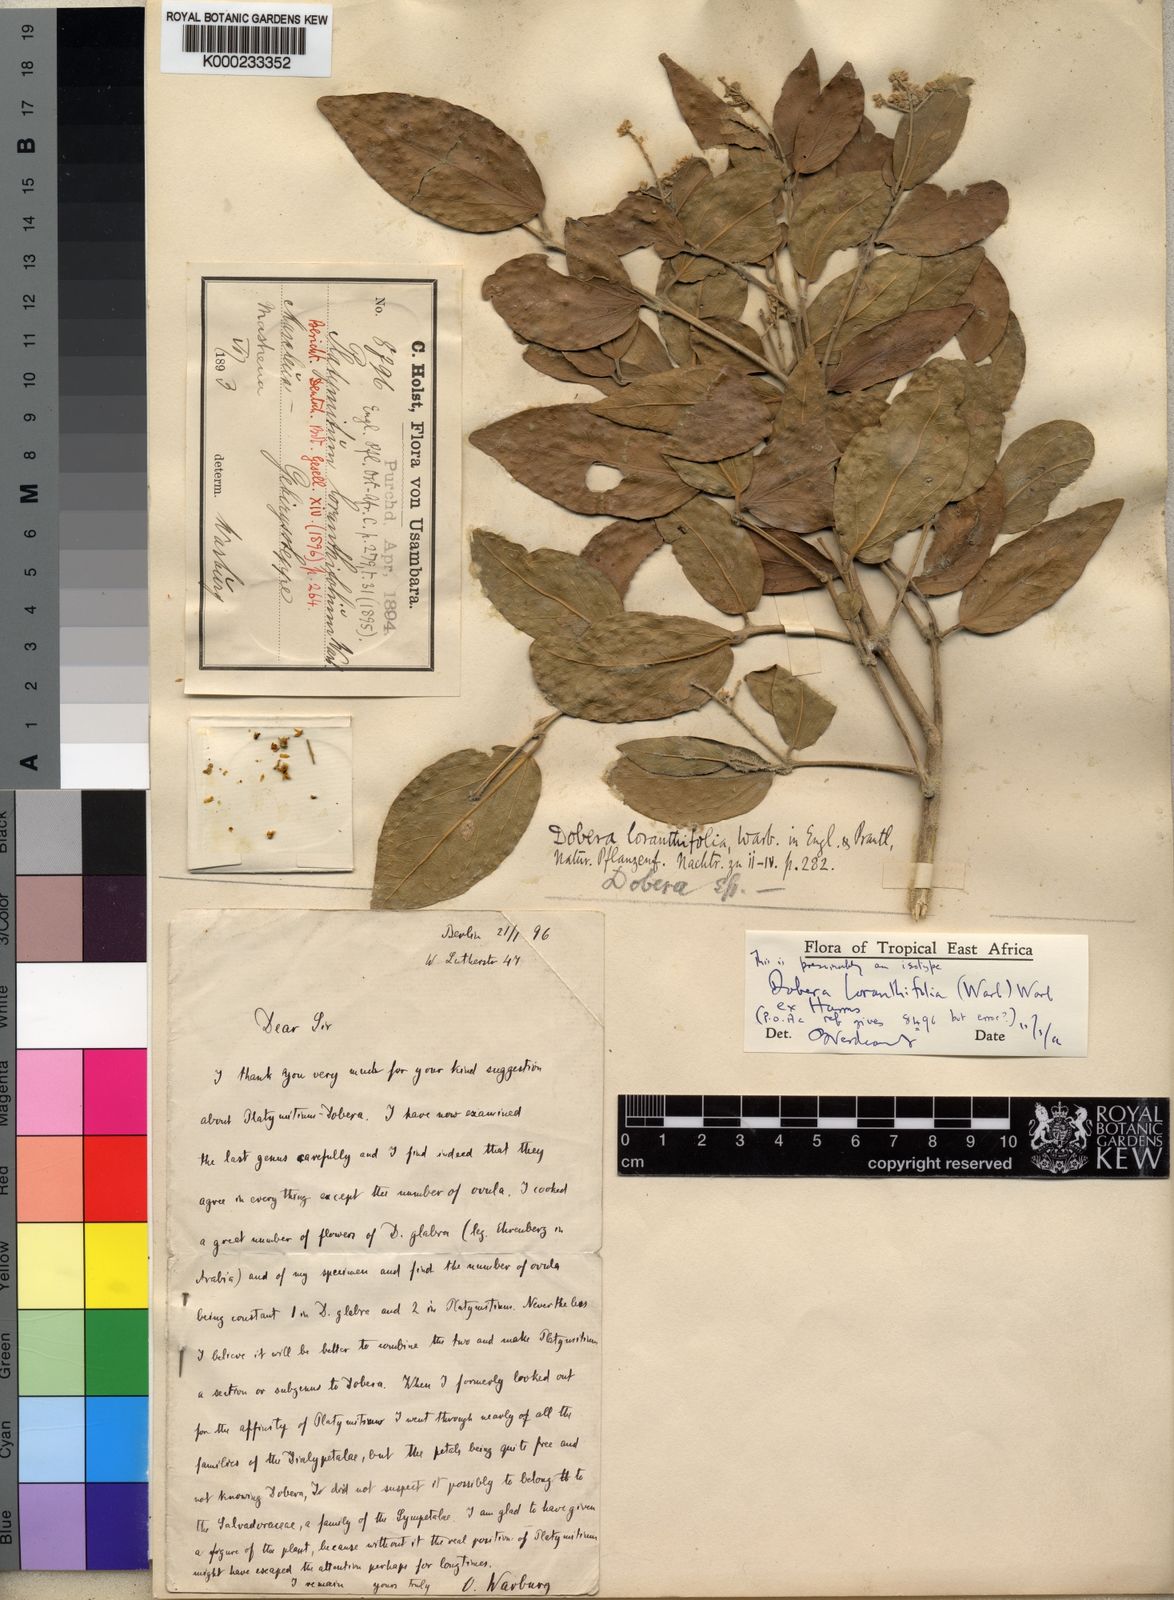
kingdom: Plantae
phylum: Tracheophyta
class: Magnoliopsida
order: Brassicales
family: Salvadoraceae
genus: Dobera
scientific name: Dobera loranthifolia
